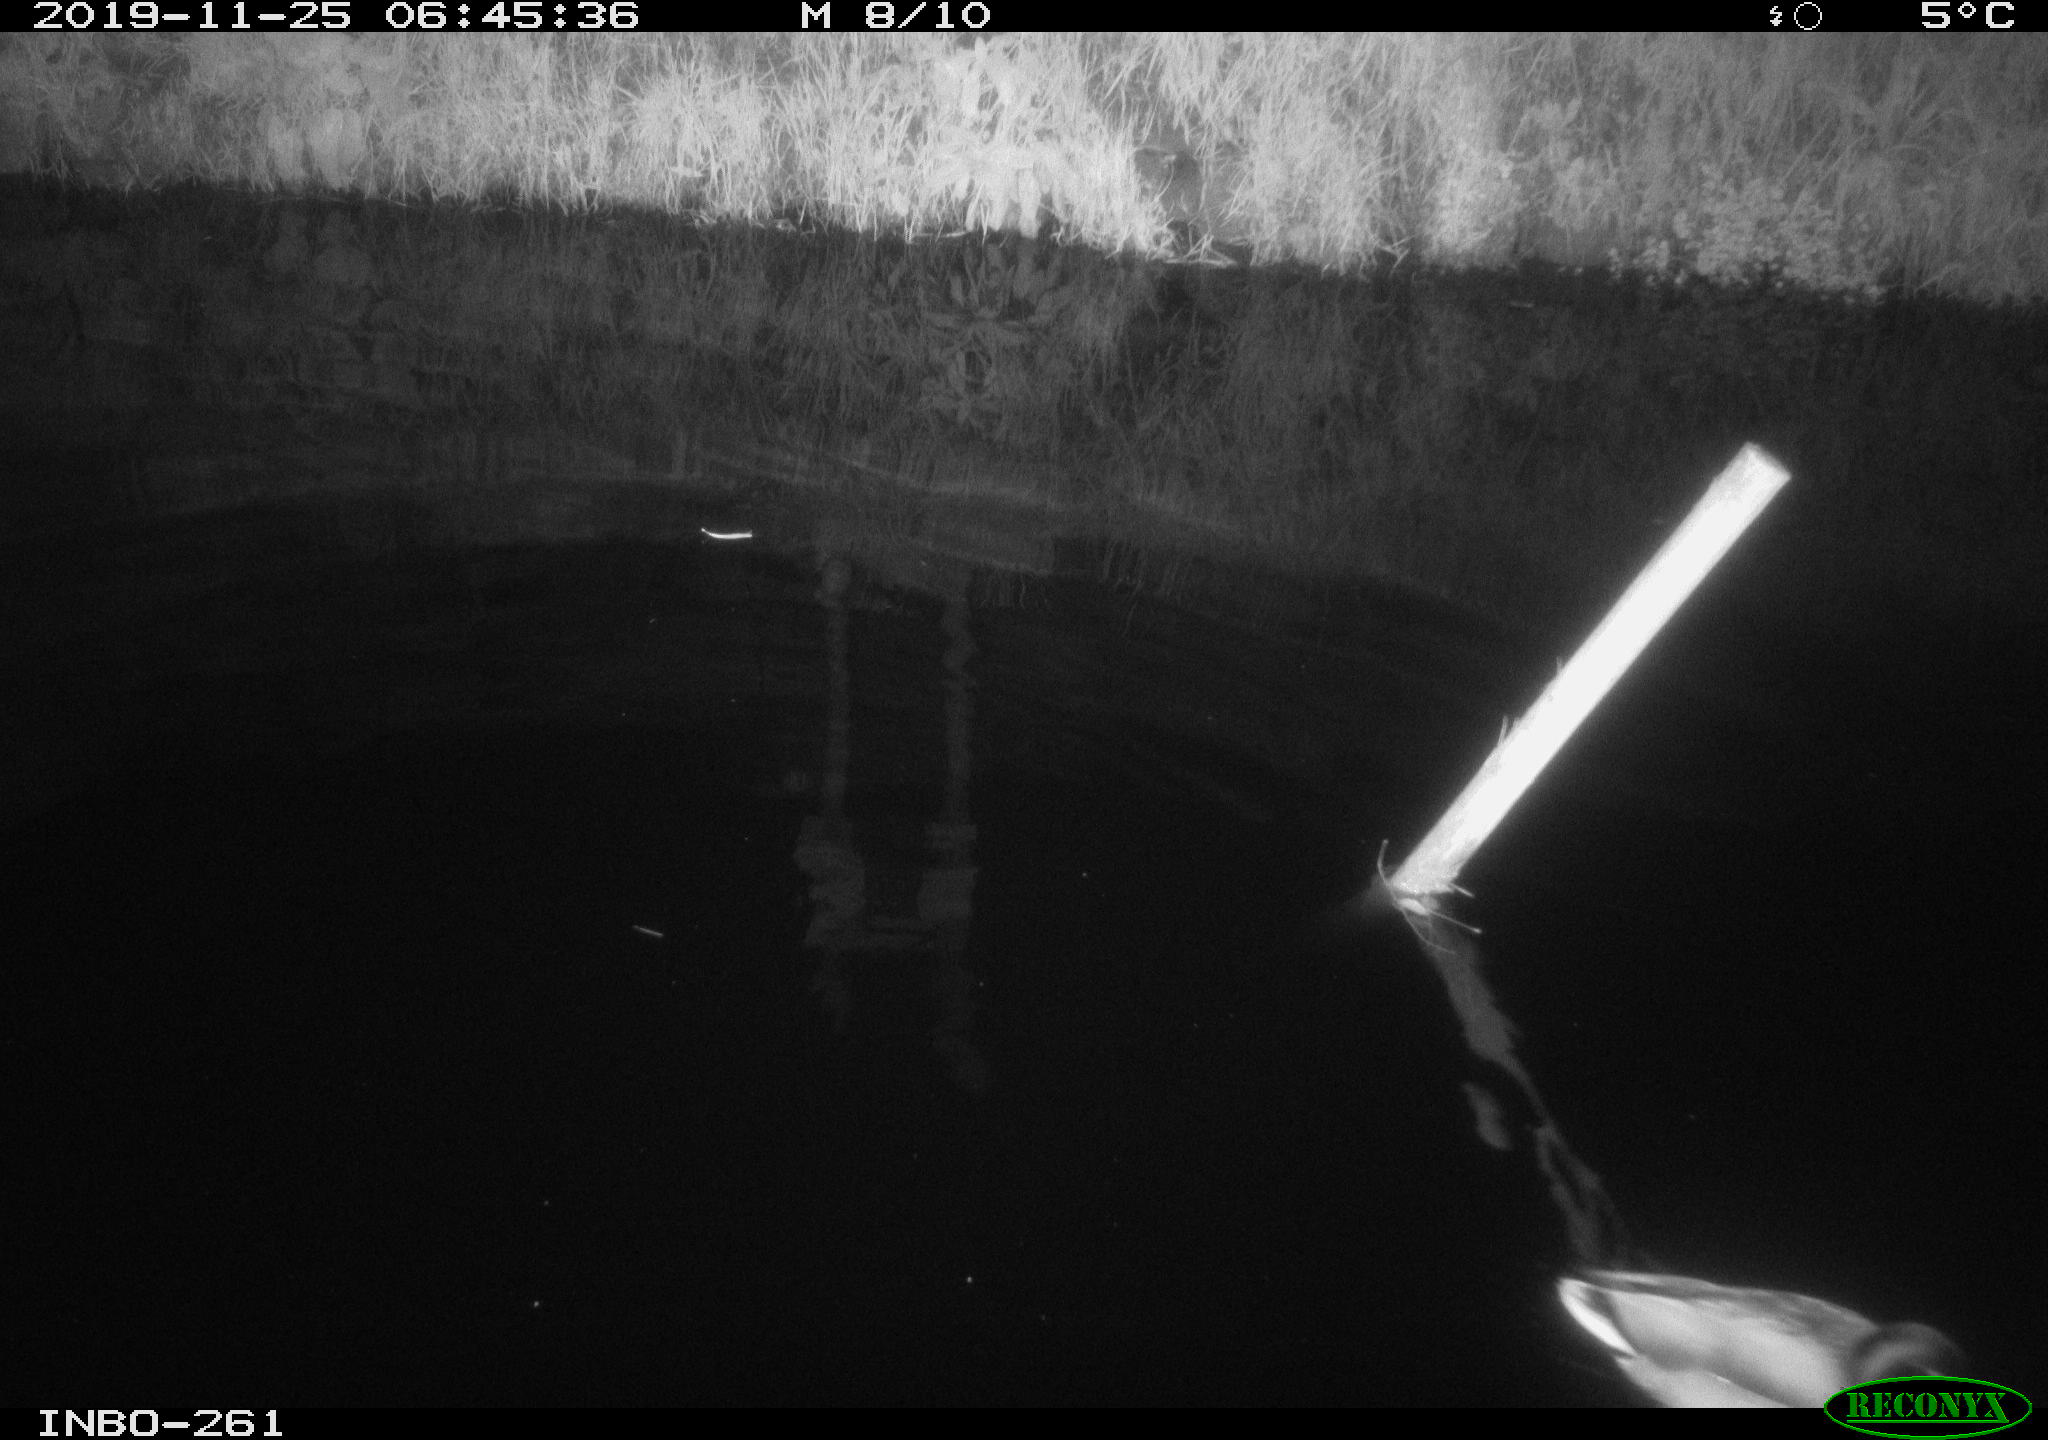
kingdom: Animalia
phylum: Chordata
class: Aves
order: Anseriformes
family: Anatidae
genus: Anas
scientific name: Anas platyrhynchos
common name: Mallard
